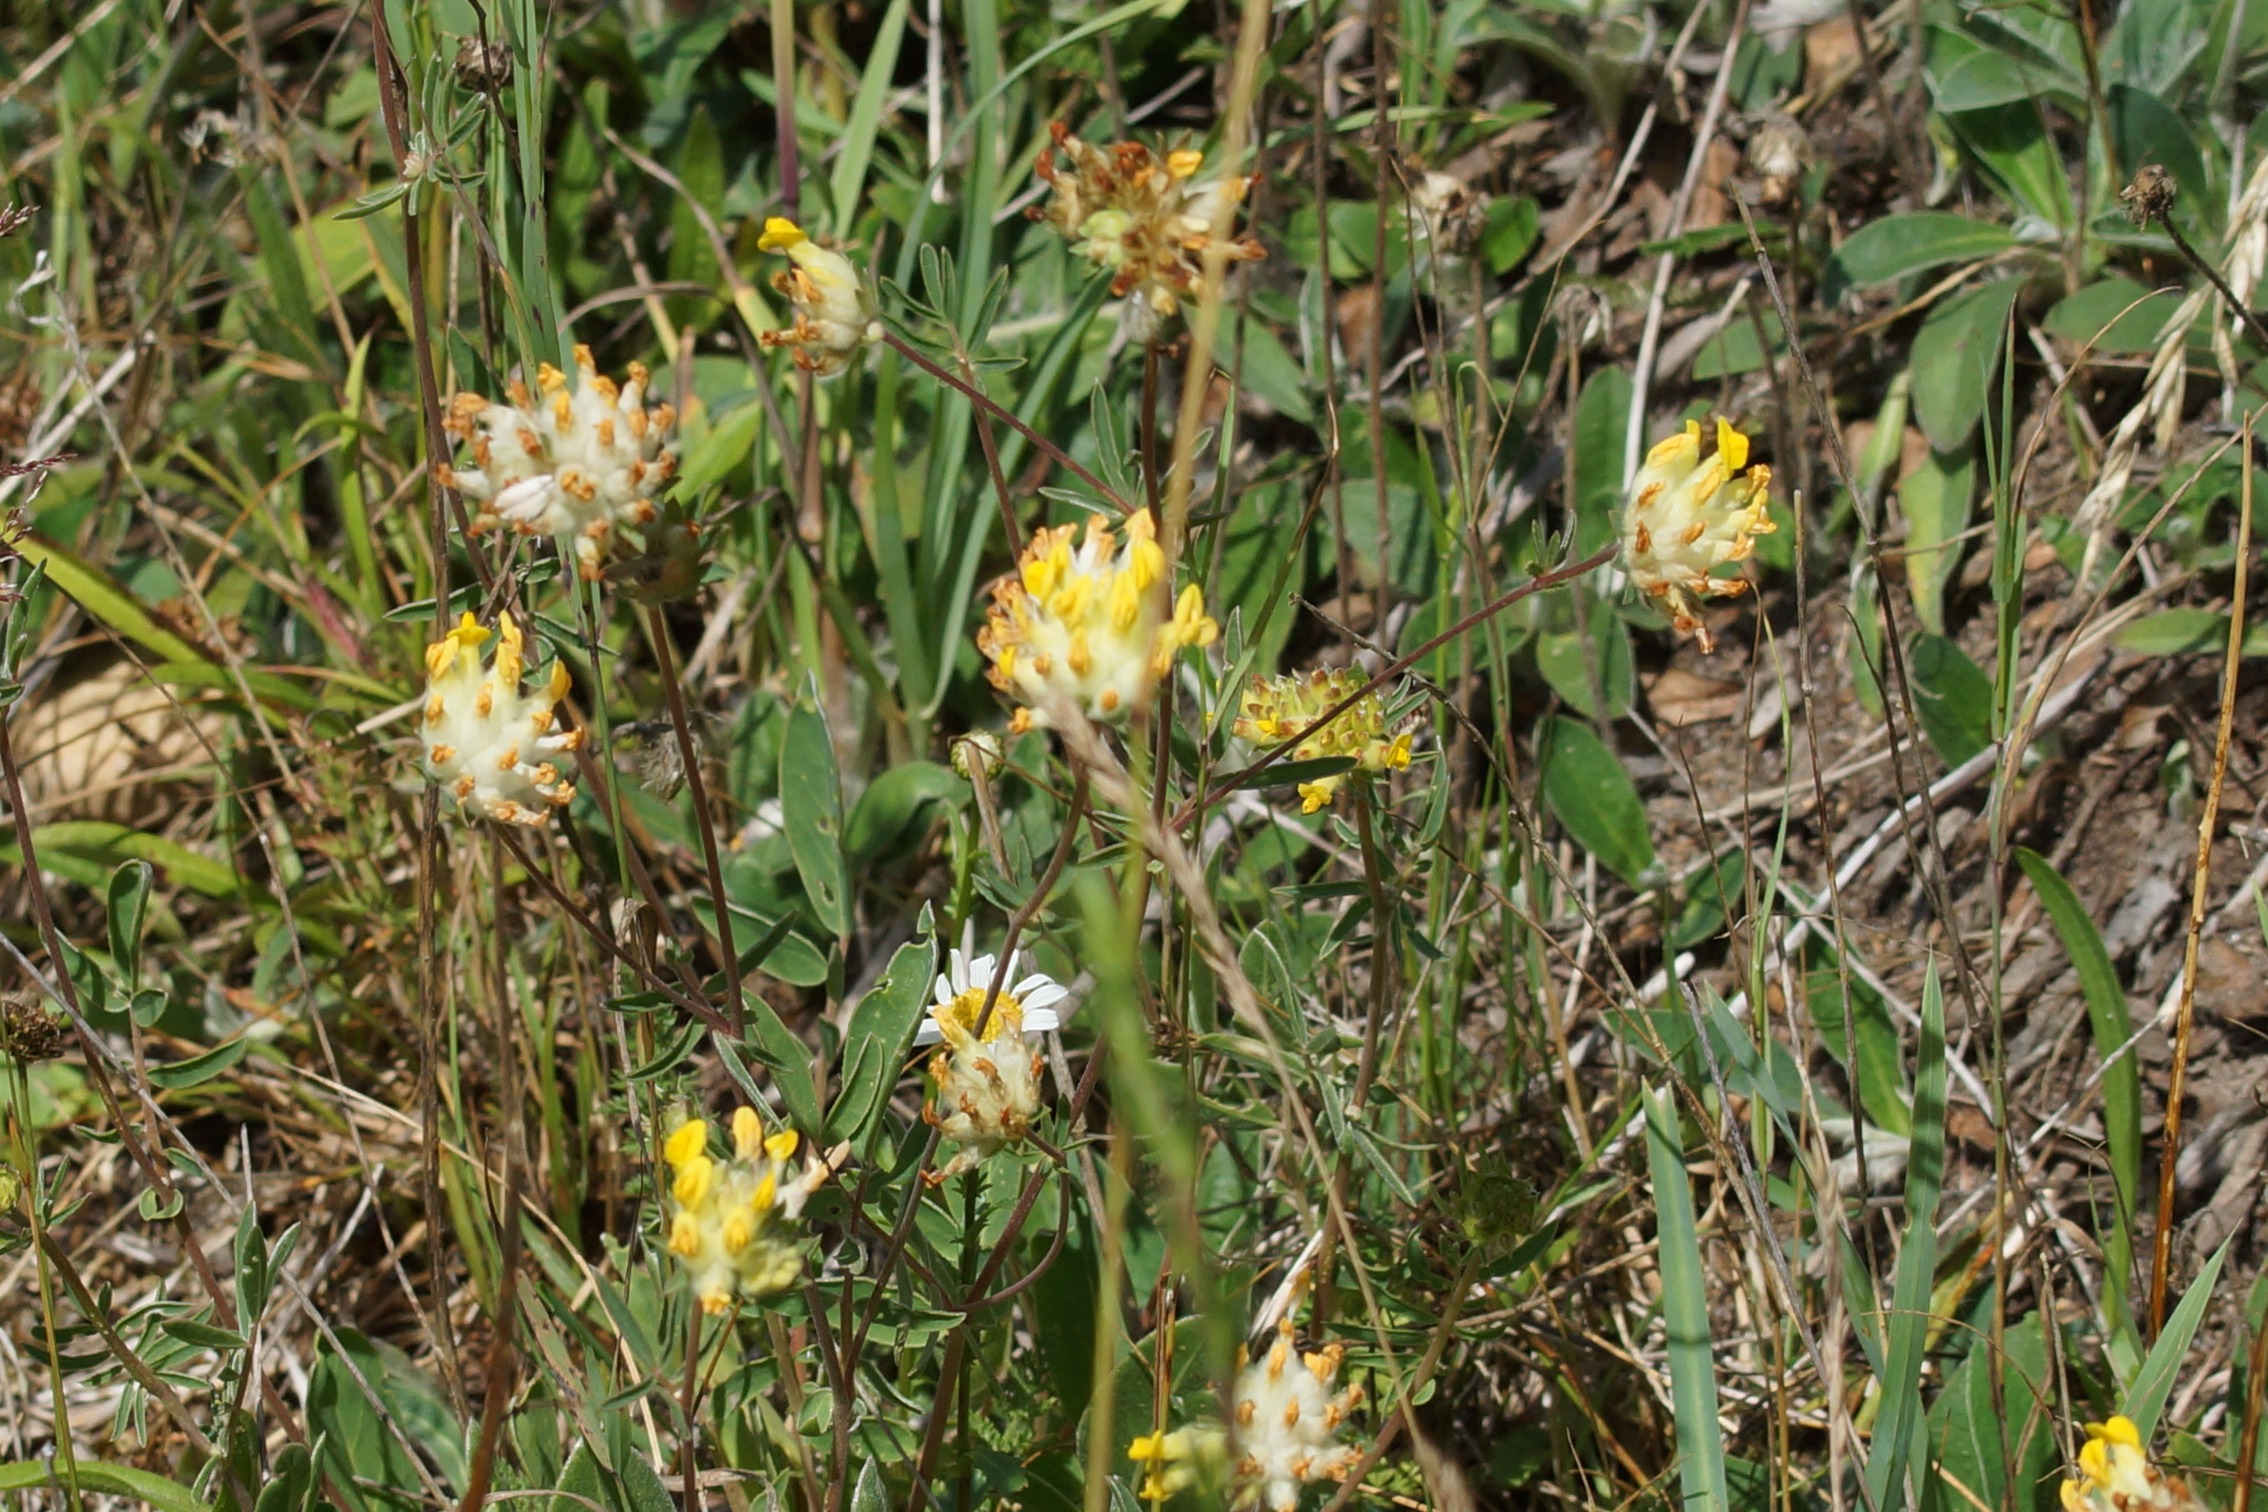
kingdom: Plantae
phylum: Tracheophyta
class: Magnoliopsida
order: Fabales
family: Fabaceae
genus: Anthyllis
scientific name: Anthyllis vulneraria
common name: Rundbælg
